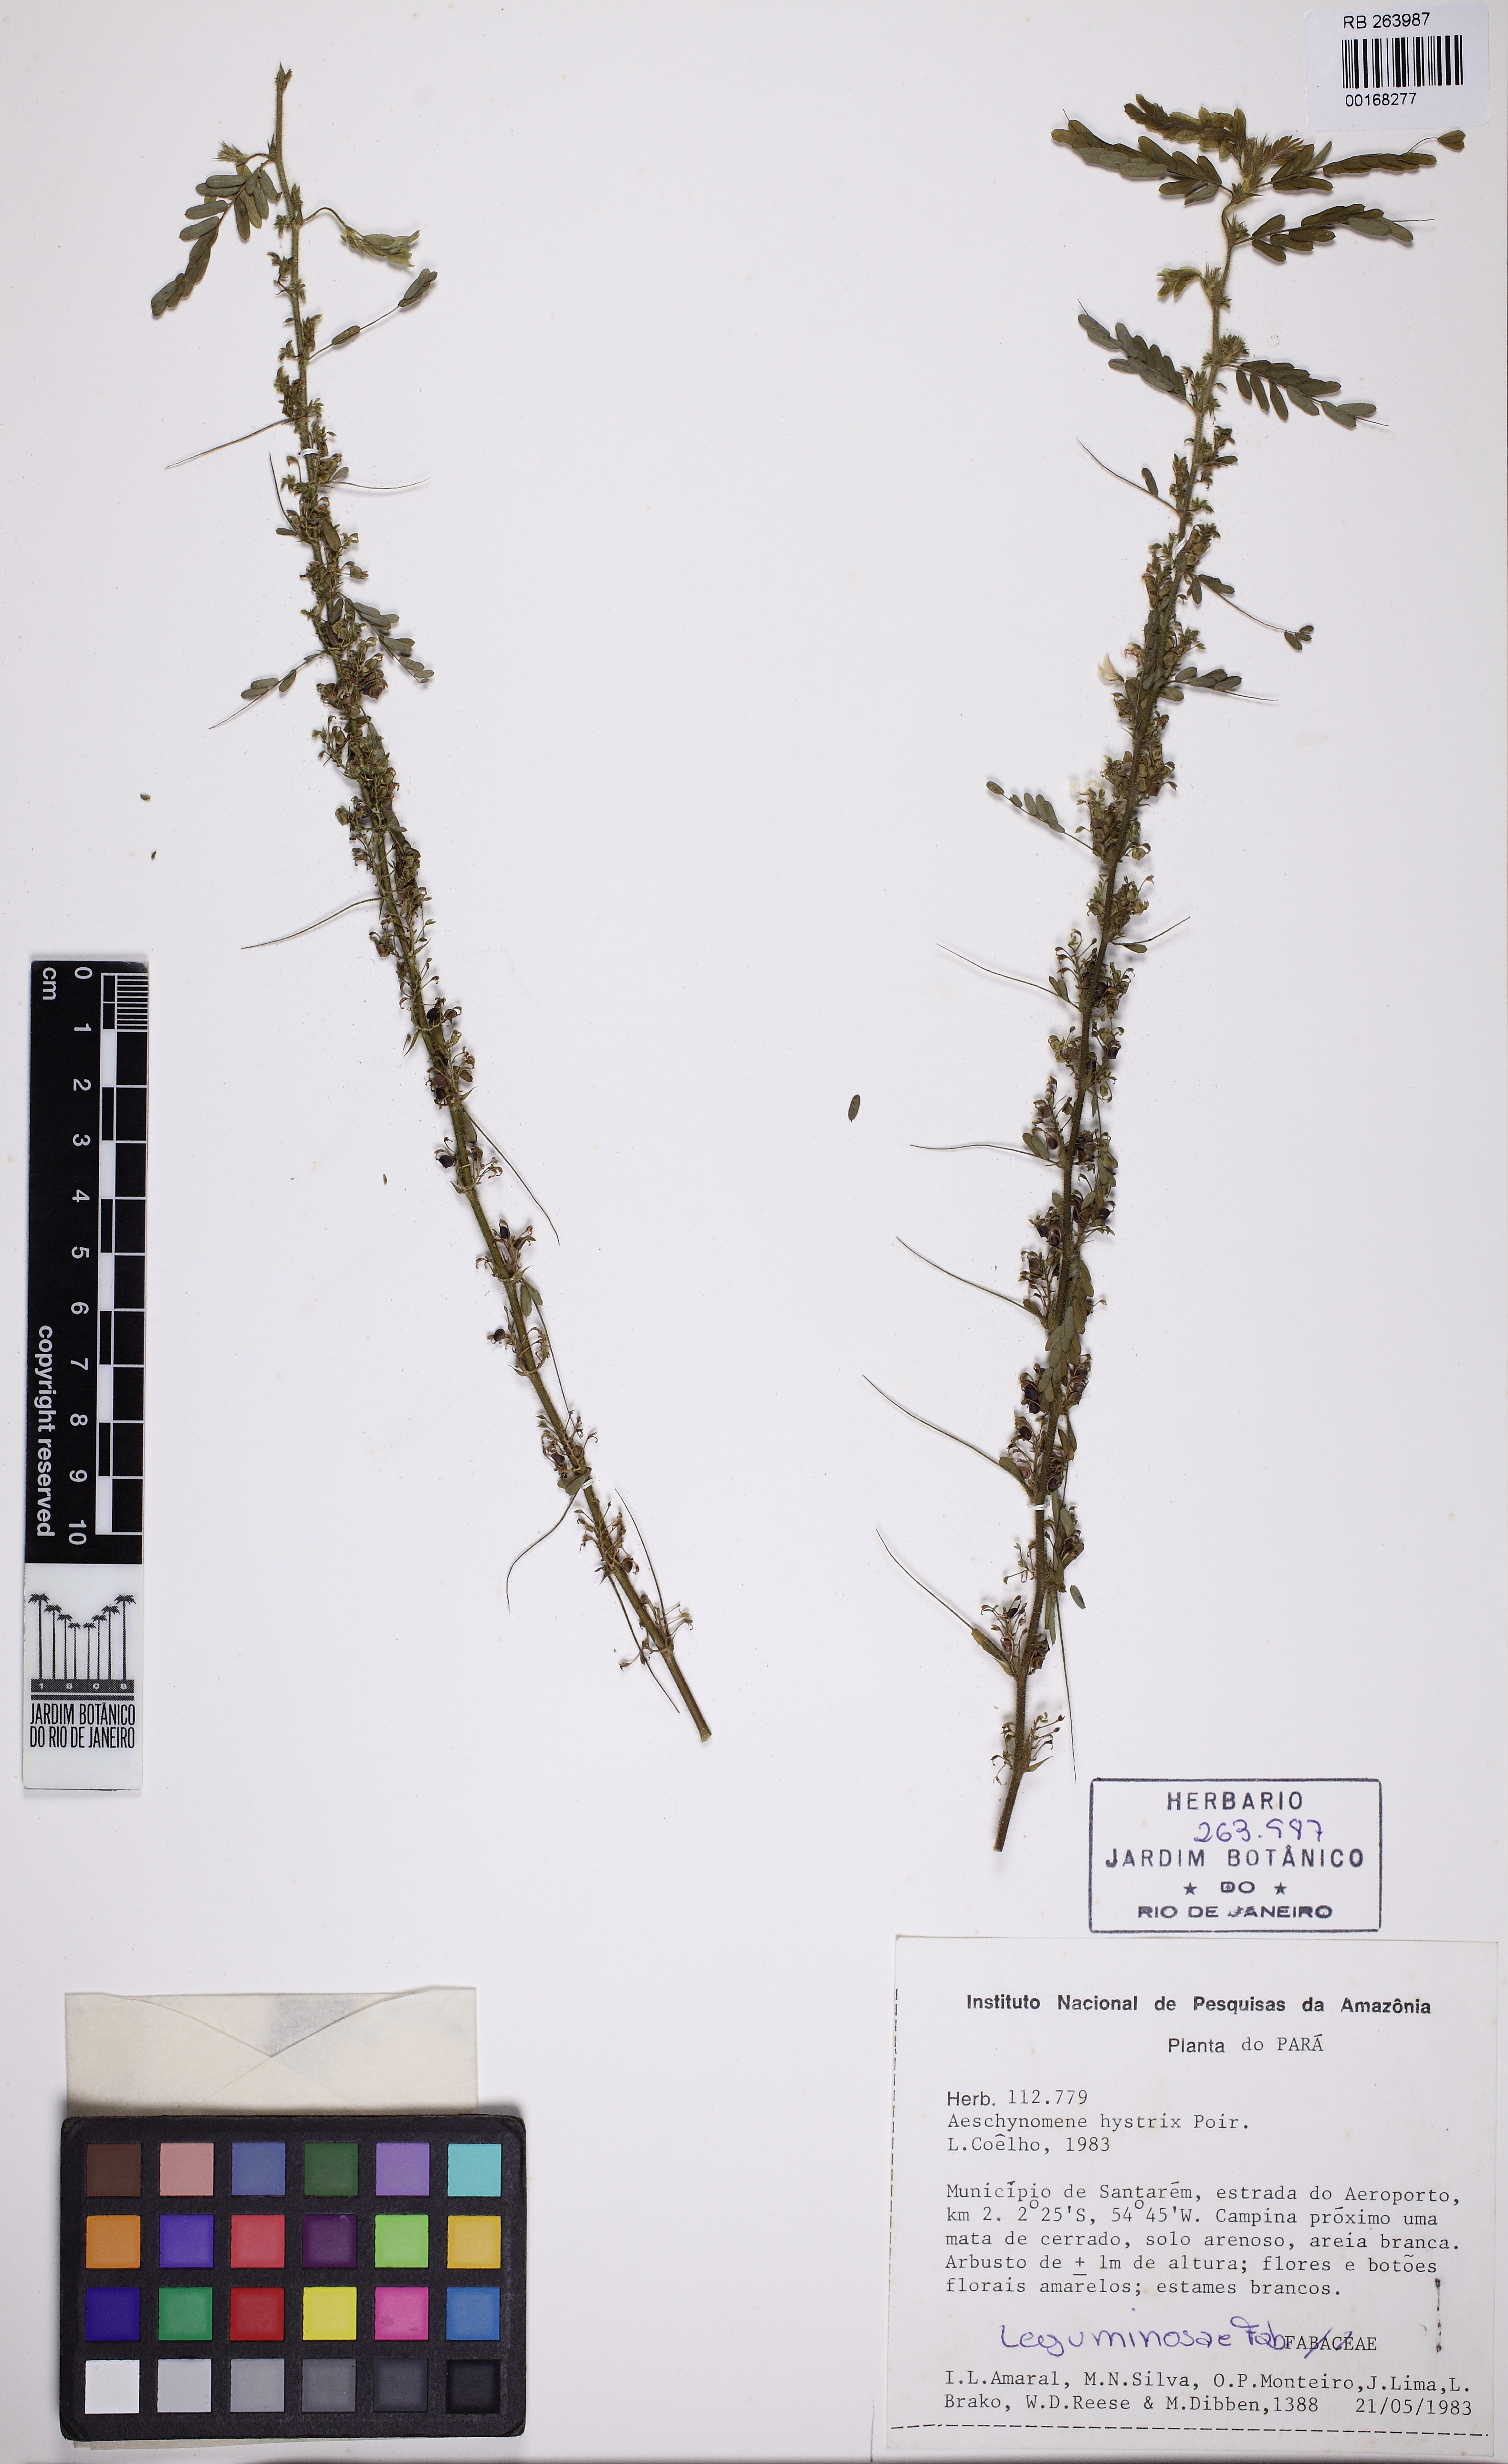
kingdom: Plantae
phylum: Tracheophyta
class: Magnoliopsida
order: Fabales
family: Fabaceae
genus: Ctenodon
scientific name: Ctenodon histrix
